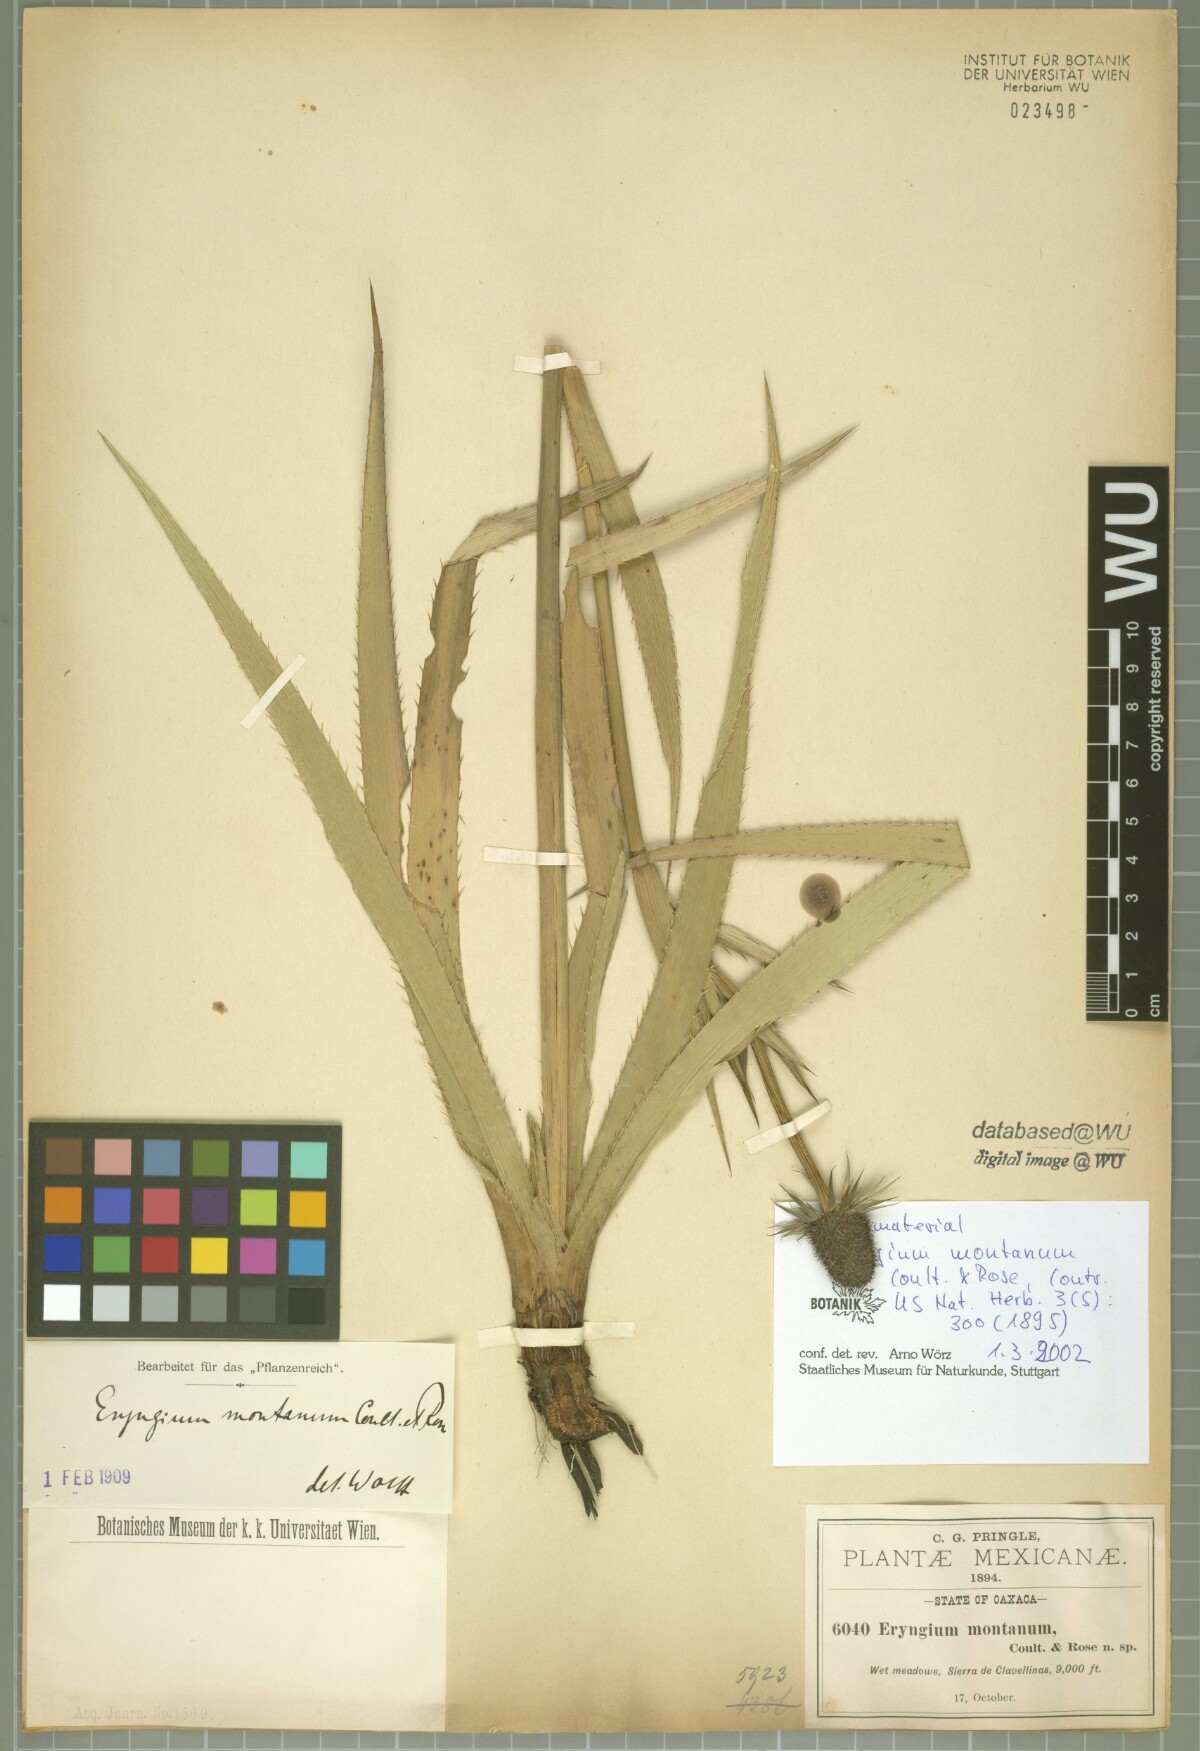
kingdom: Plantae
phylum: Tracheophyta
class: Magnoliopsida
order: Apiales
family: Apiaceae
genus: Eryngium
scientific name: Eryngium montanum
